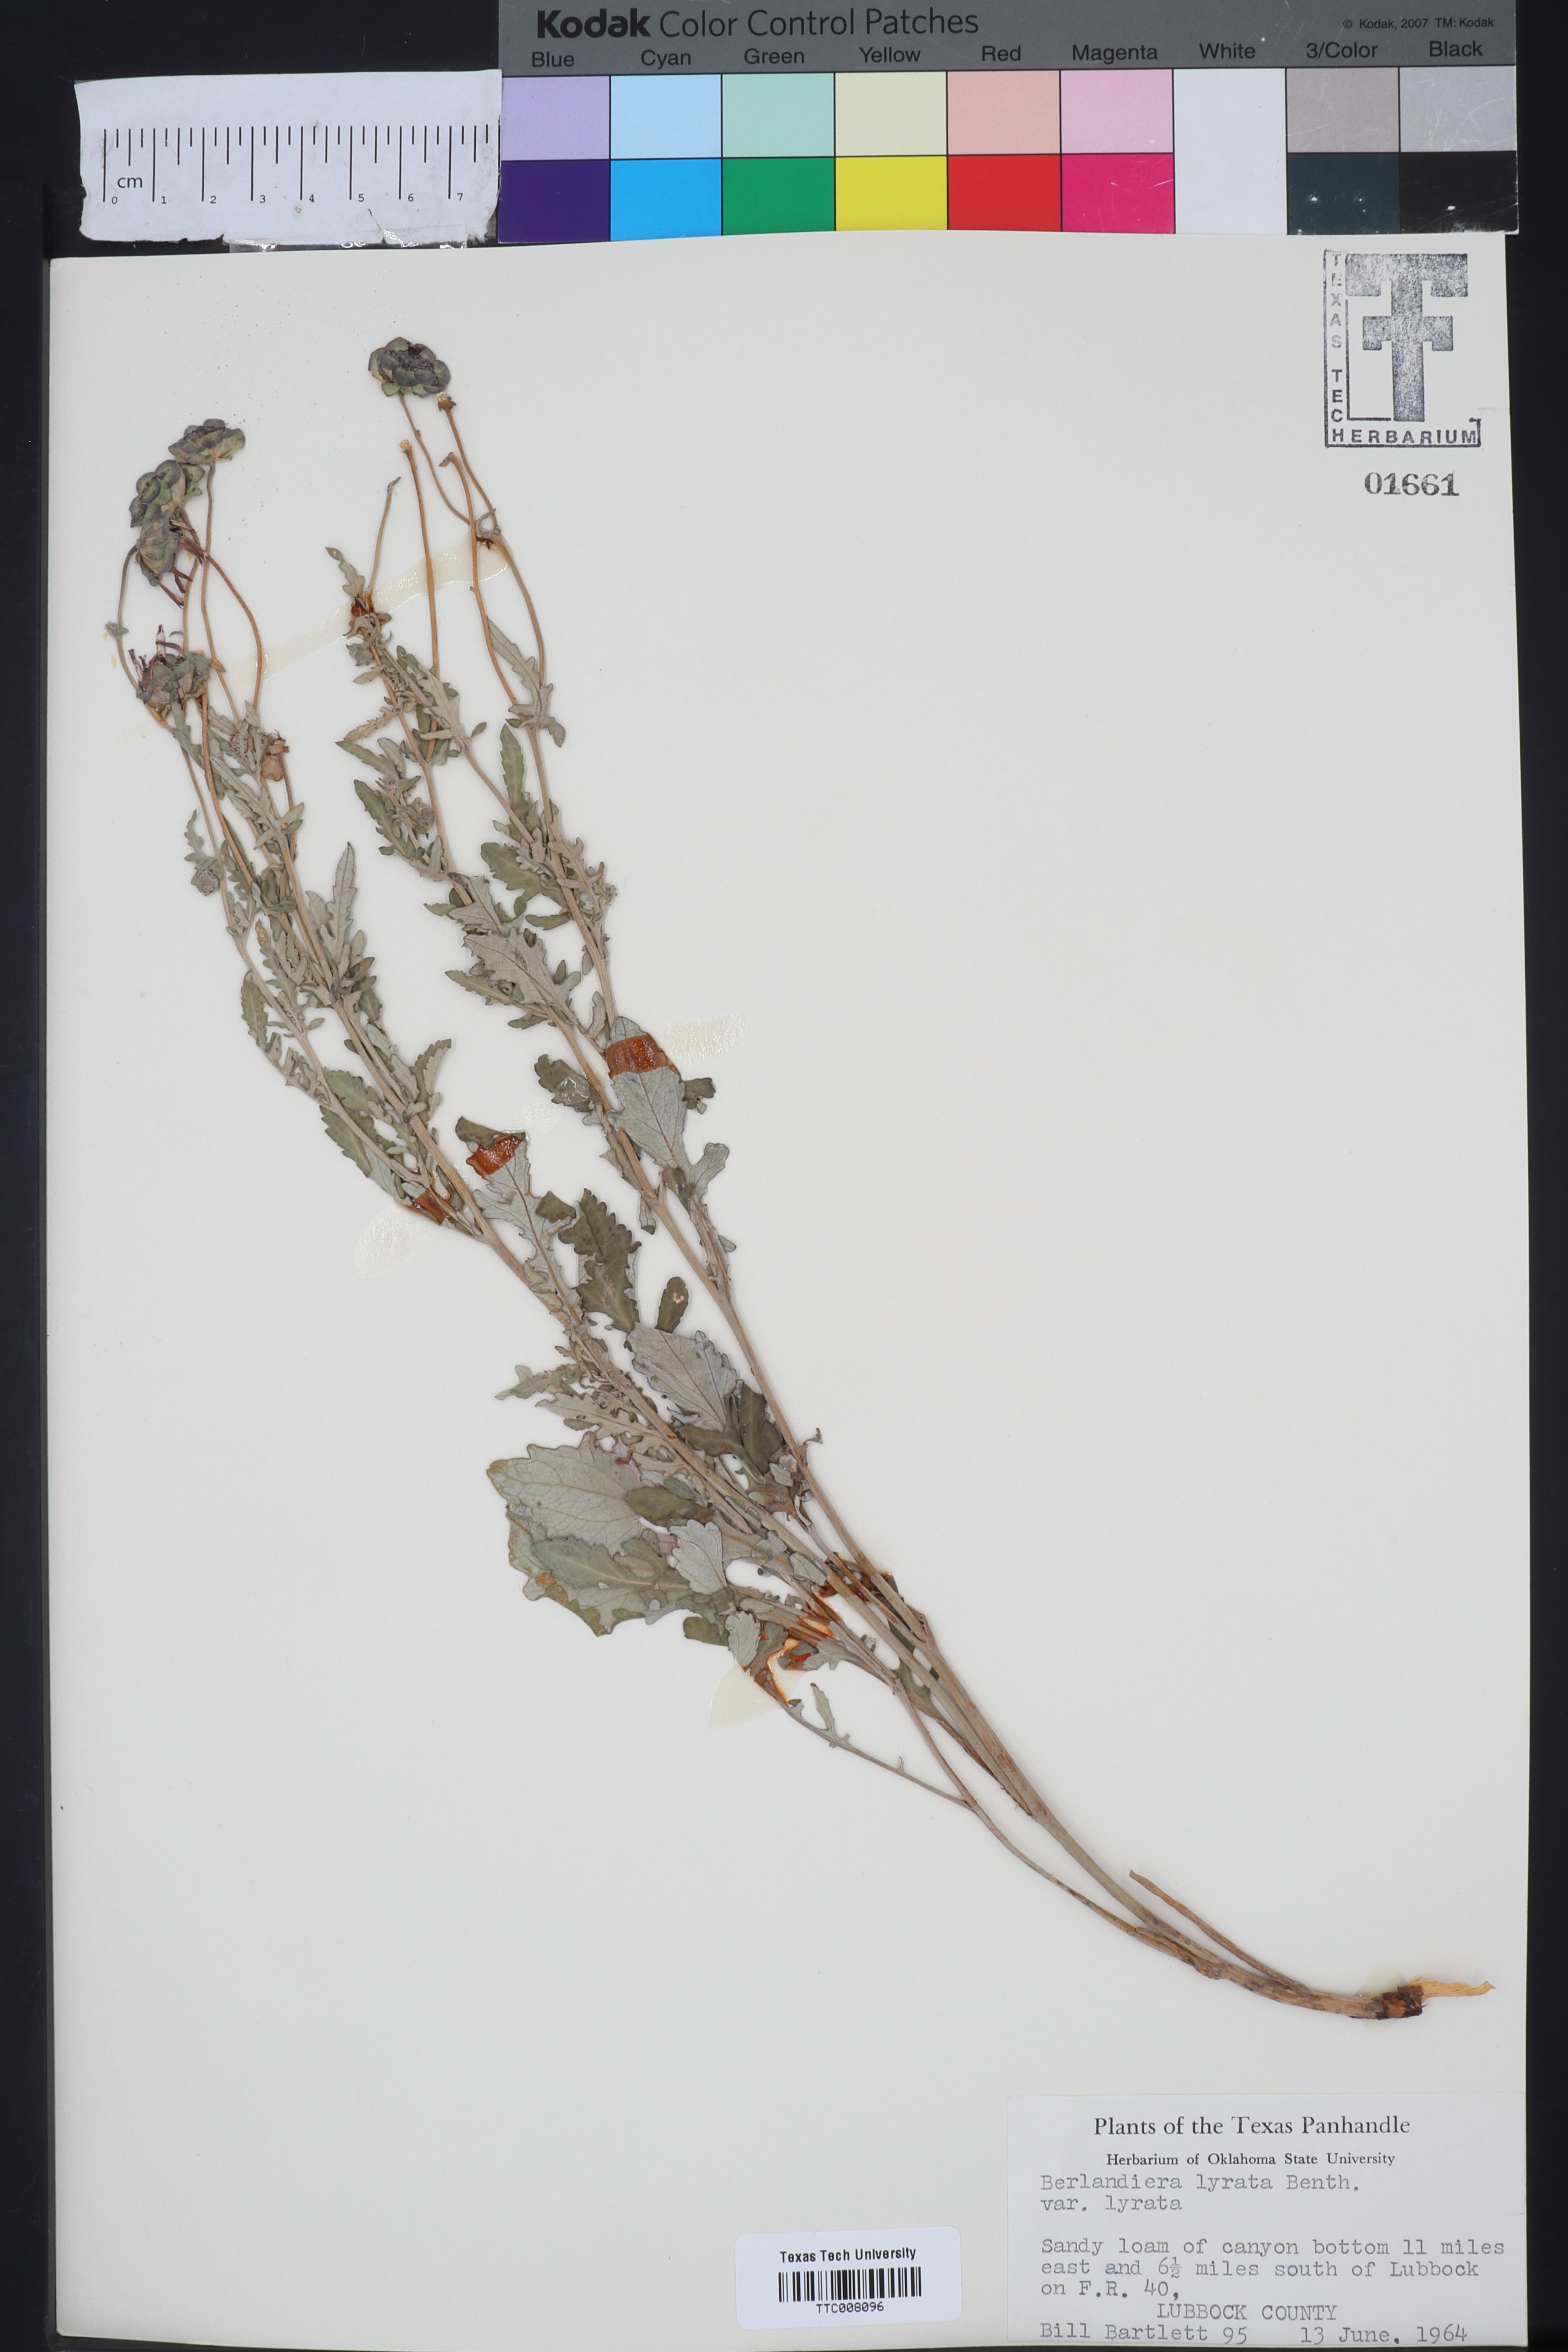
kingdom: Plantae
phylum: Tracheophyta
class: Magnoliopsida
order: Asterales
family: Asteraceae
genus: Berlandiera
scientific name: Berlandiera lyrata
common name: Chocolate-flower
